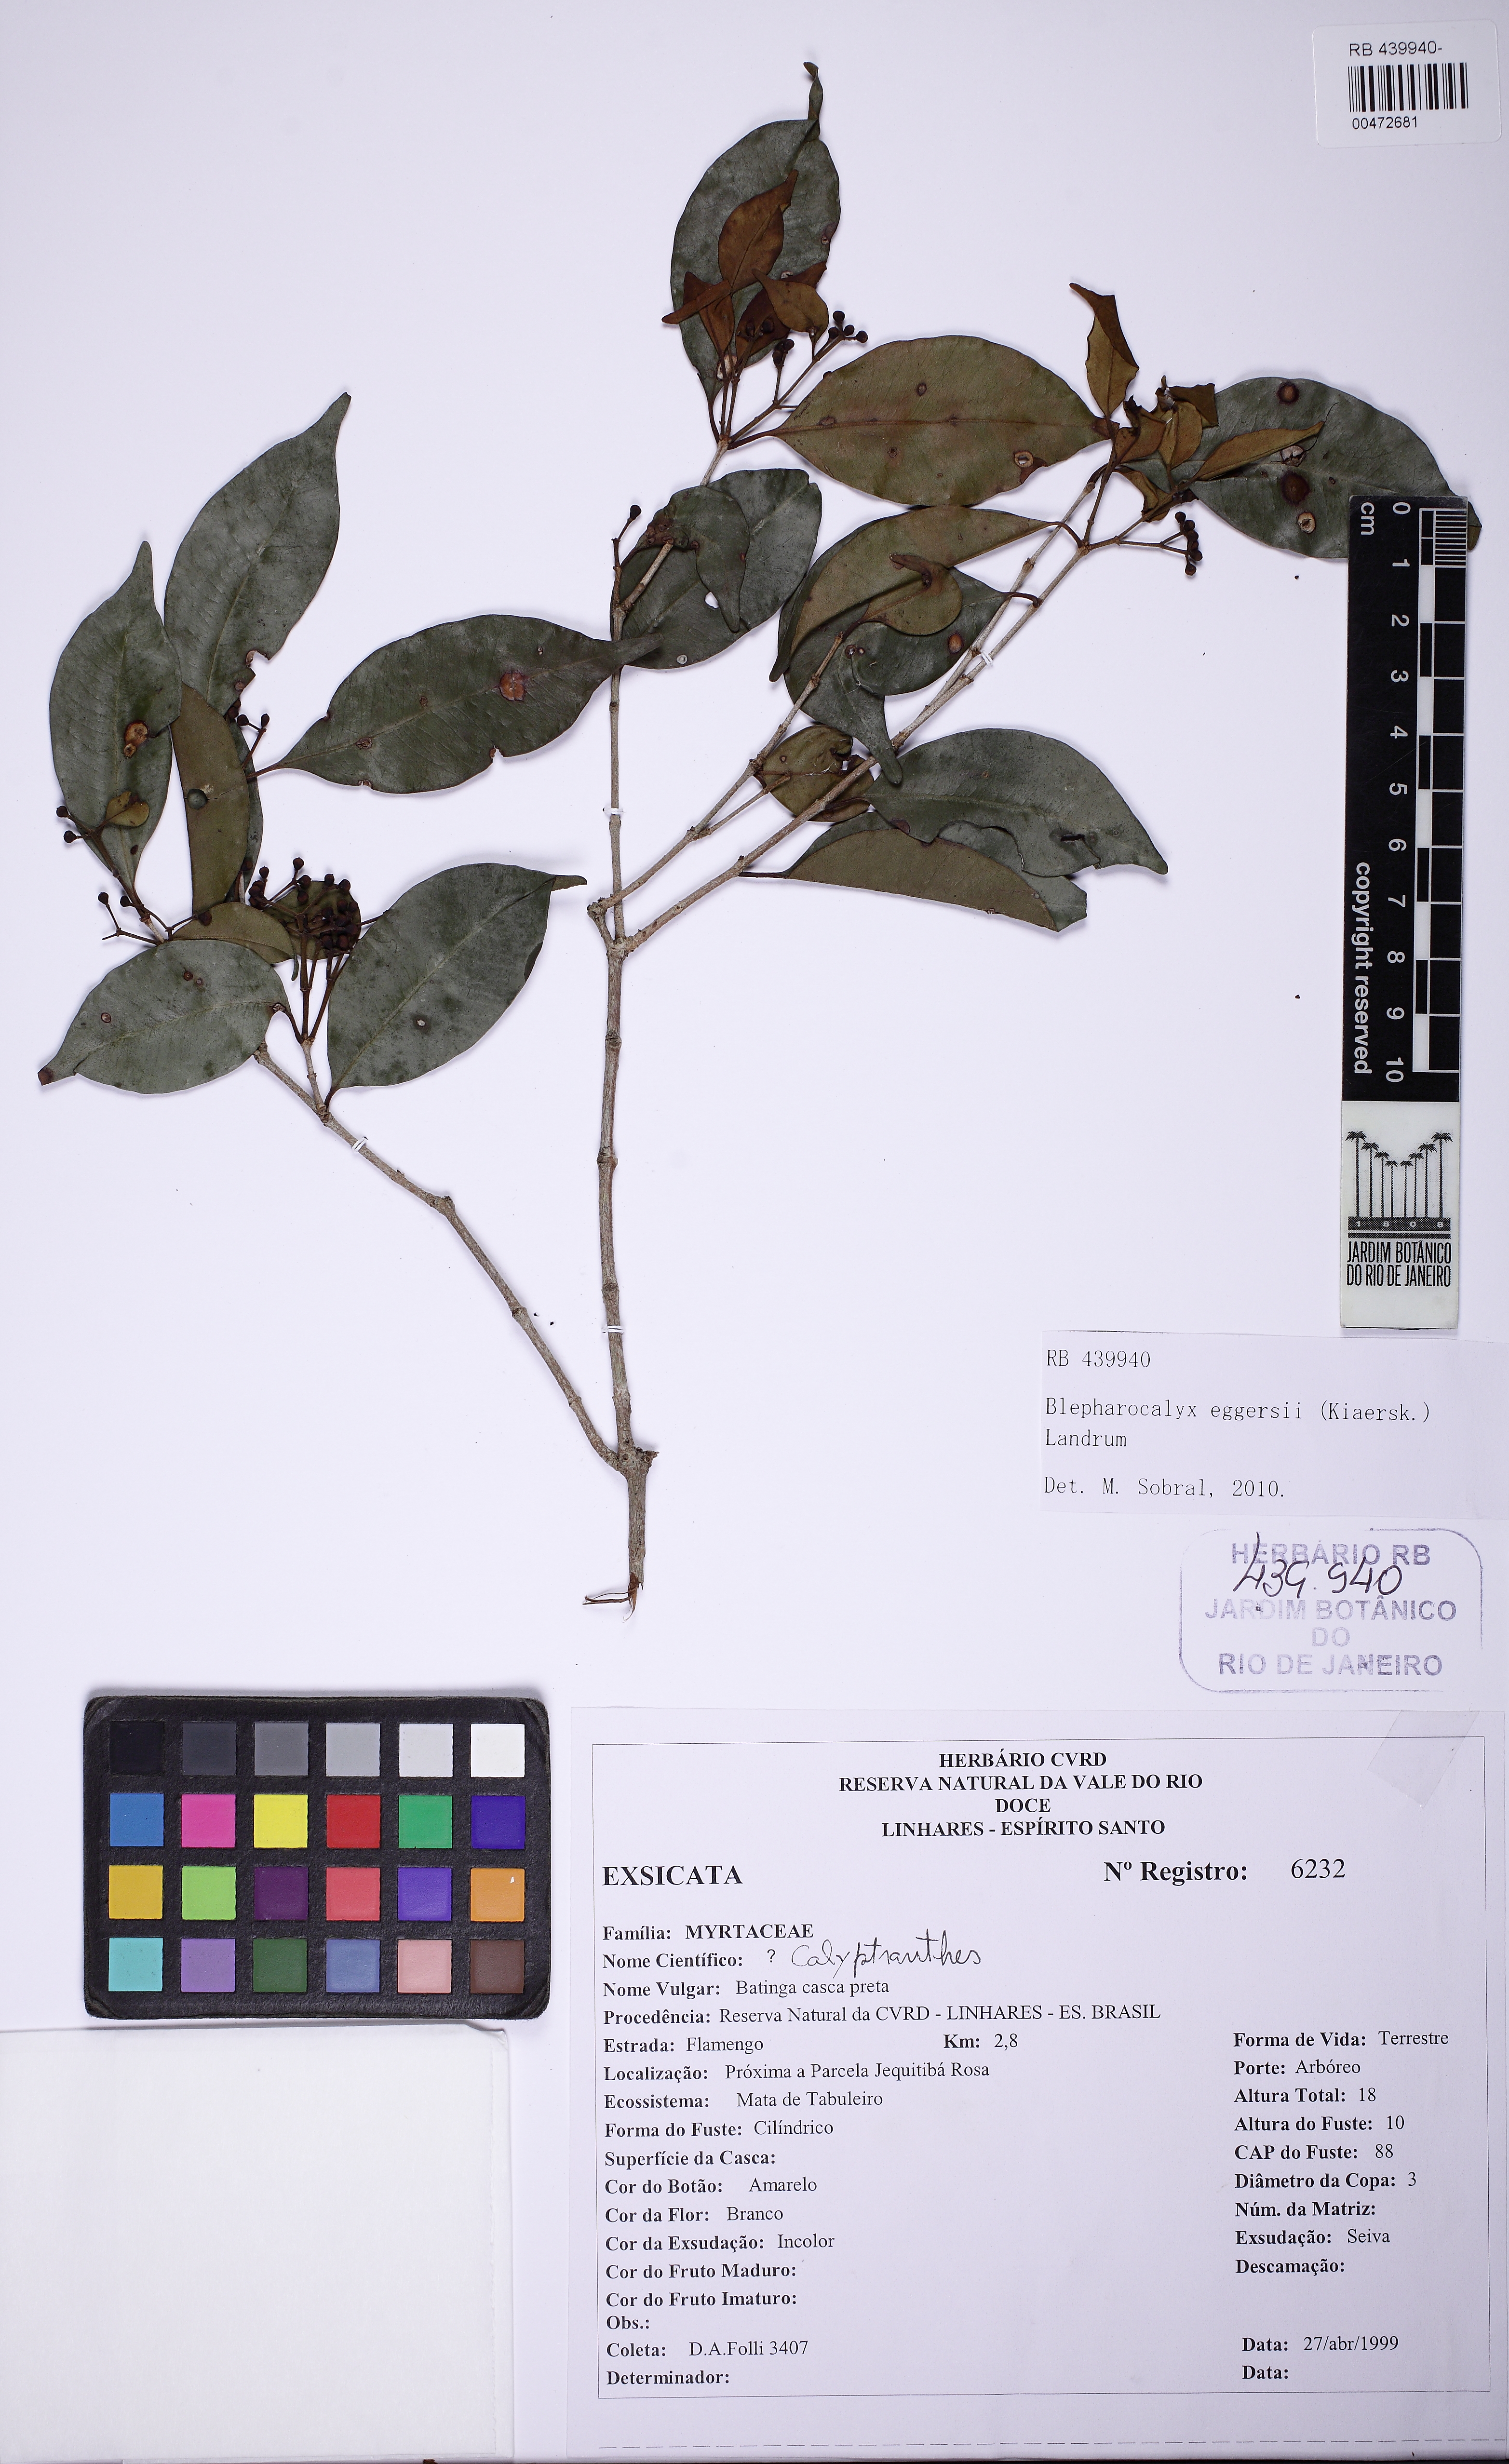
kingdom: Plantae
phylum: Tracheophyta
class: Magnoliopsida
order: Myrtales
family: Myrtaceae
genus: Blepharocalyx
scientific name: Blepharocalyx eggersii
